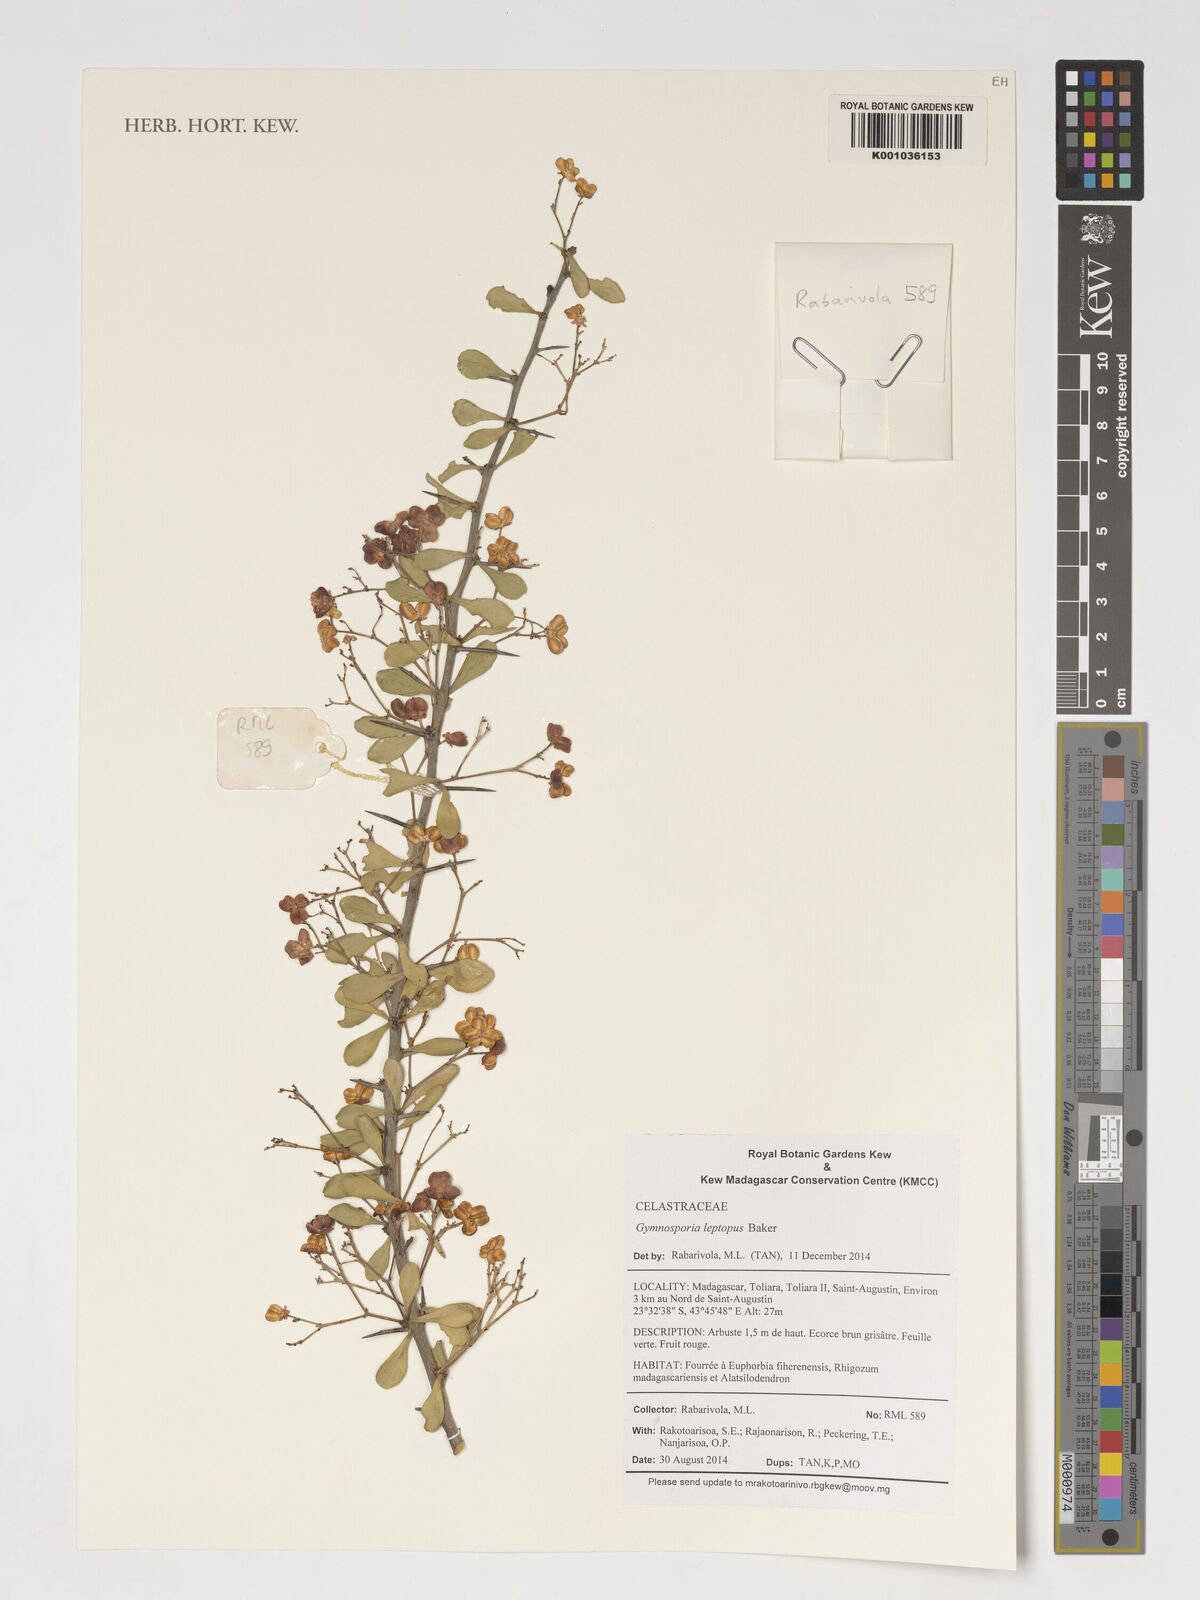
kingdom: Plantae
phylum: Tracheophyta
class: Magnoliopsida
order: Celastrales
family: Celastraceae
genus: Gymnosporia
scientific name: Gymnosporia leptopus
